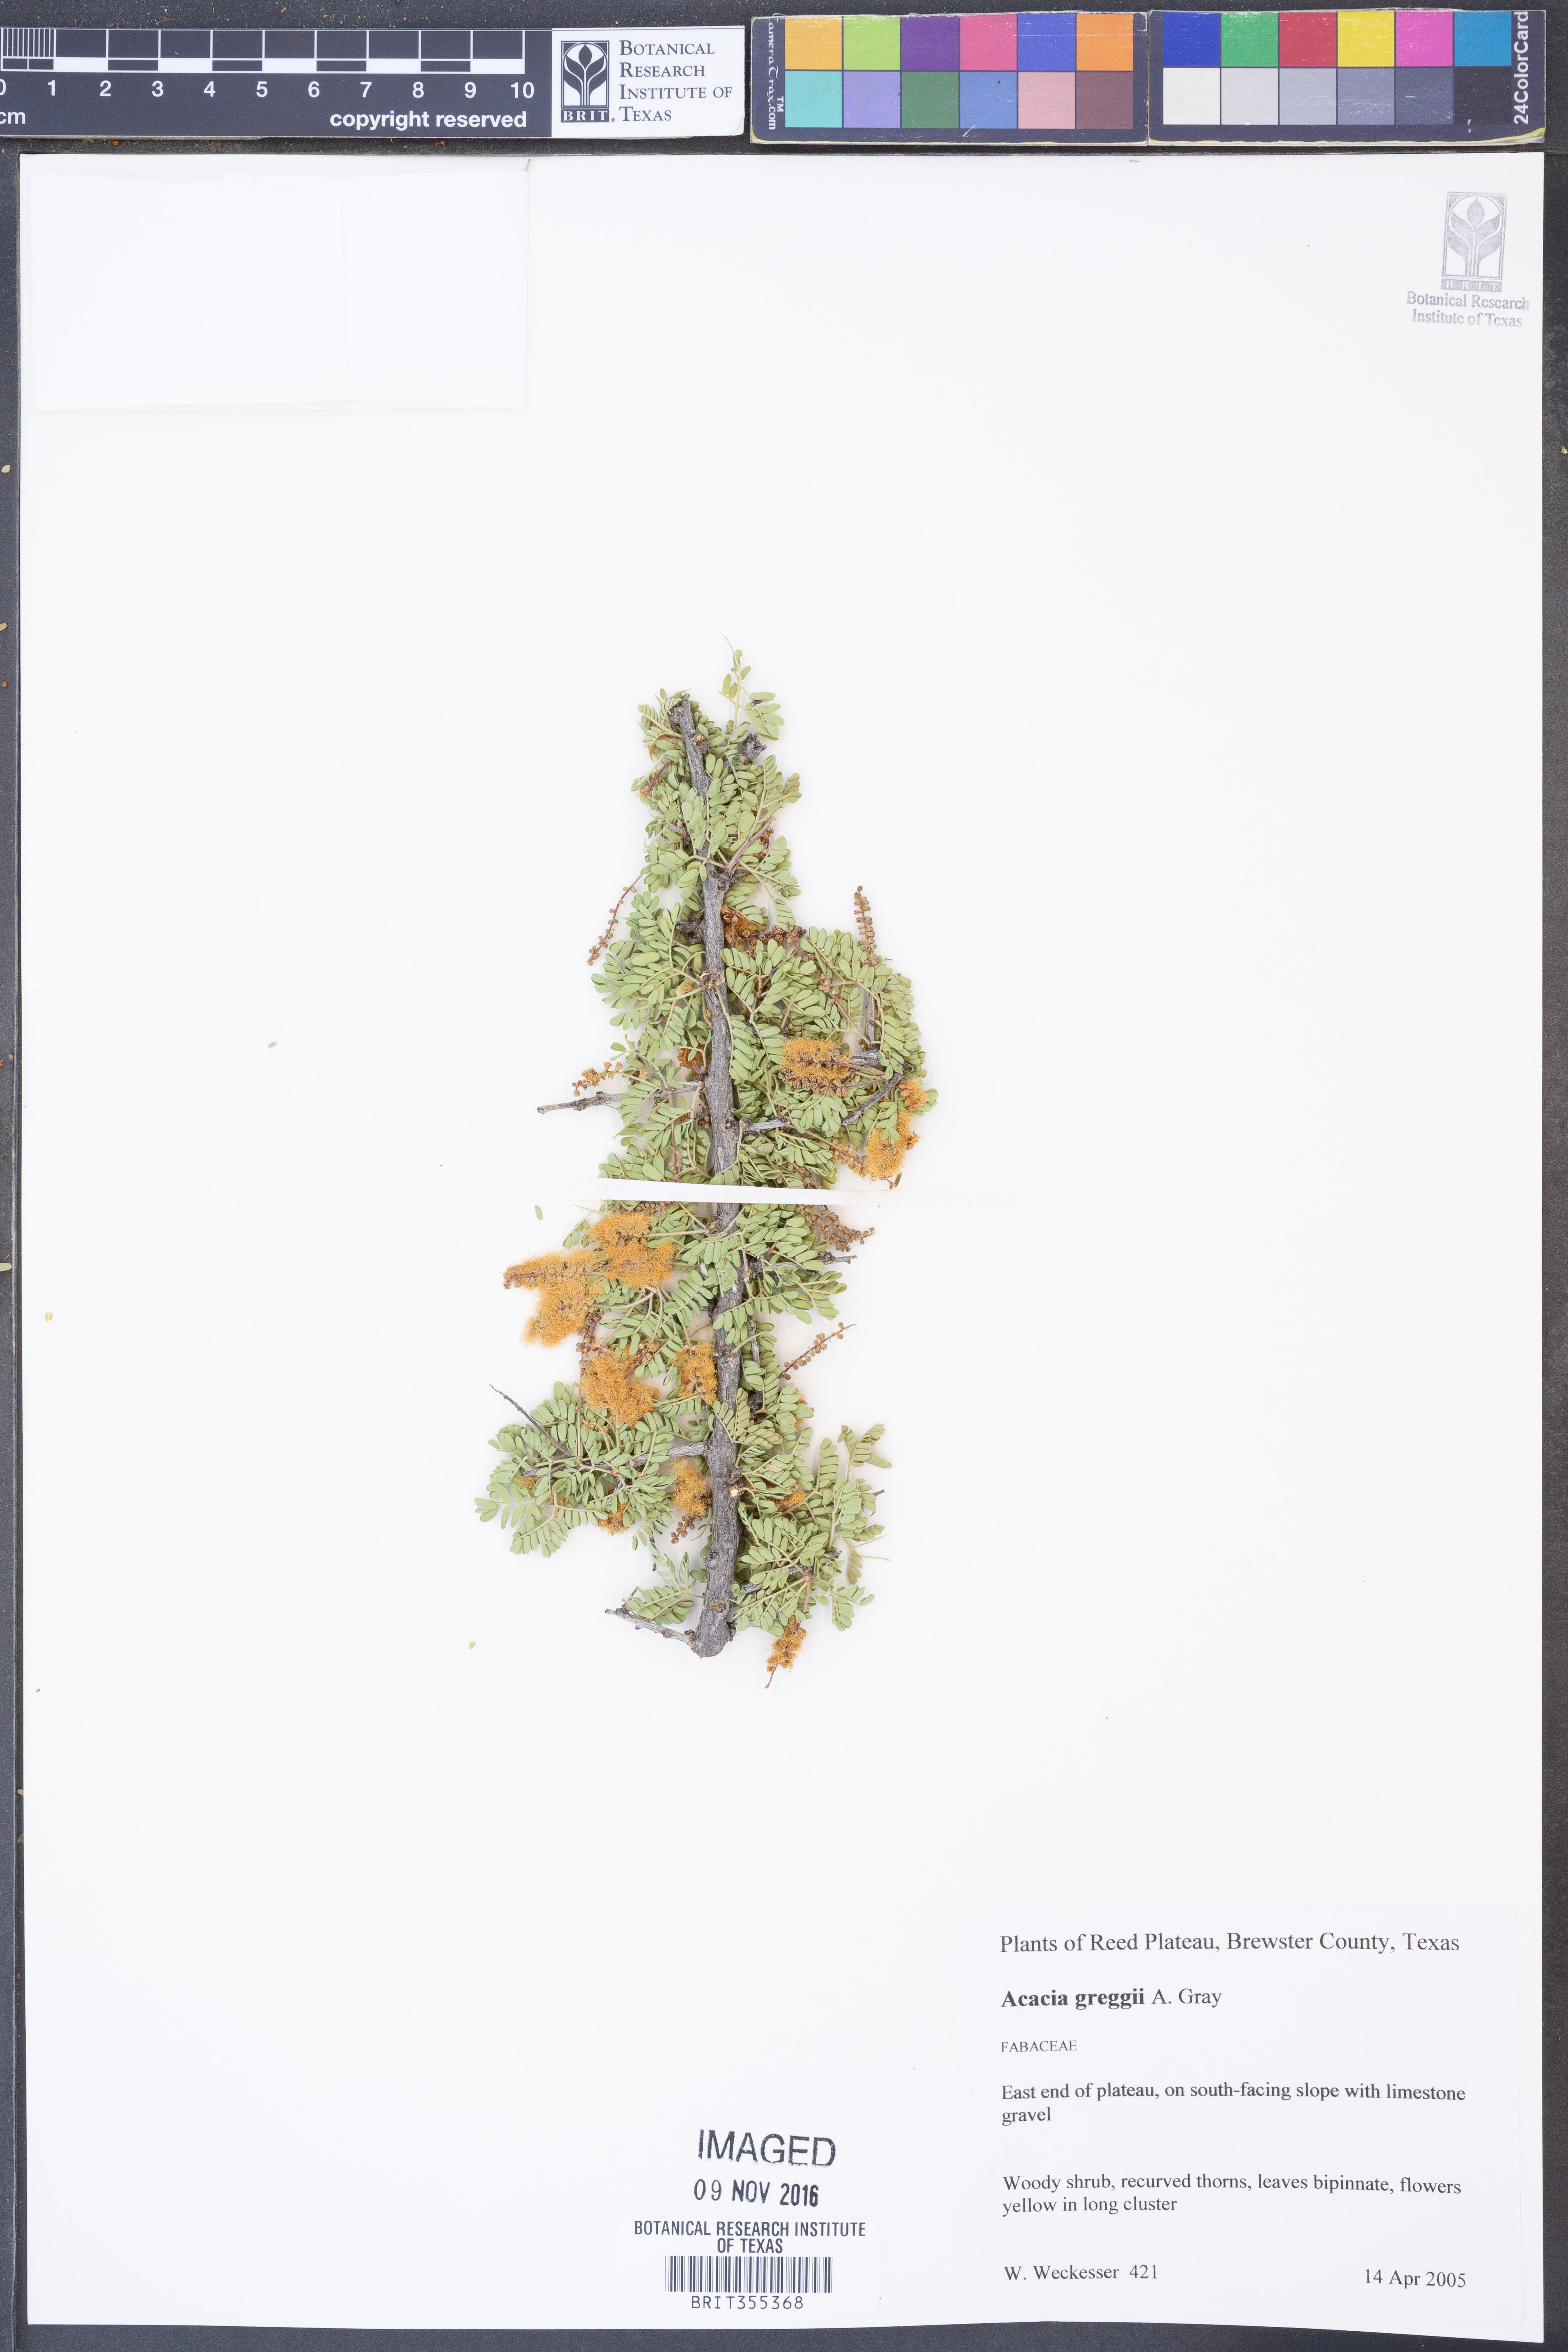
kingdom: Plantae
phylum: Tracheophyta
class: Magnoliopsida
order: Fabales
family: Fabaceae
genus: Senegalia
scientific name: Senegalia greggii
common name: Texas-mimosa
